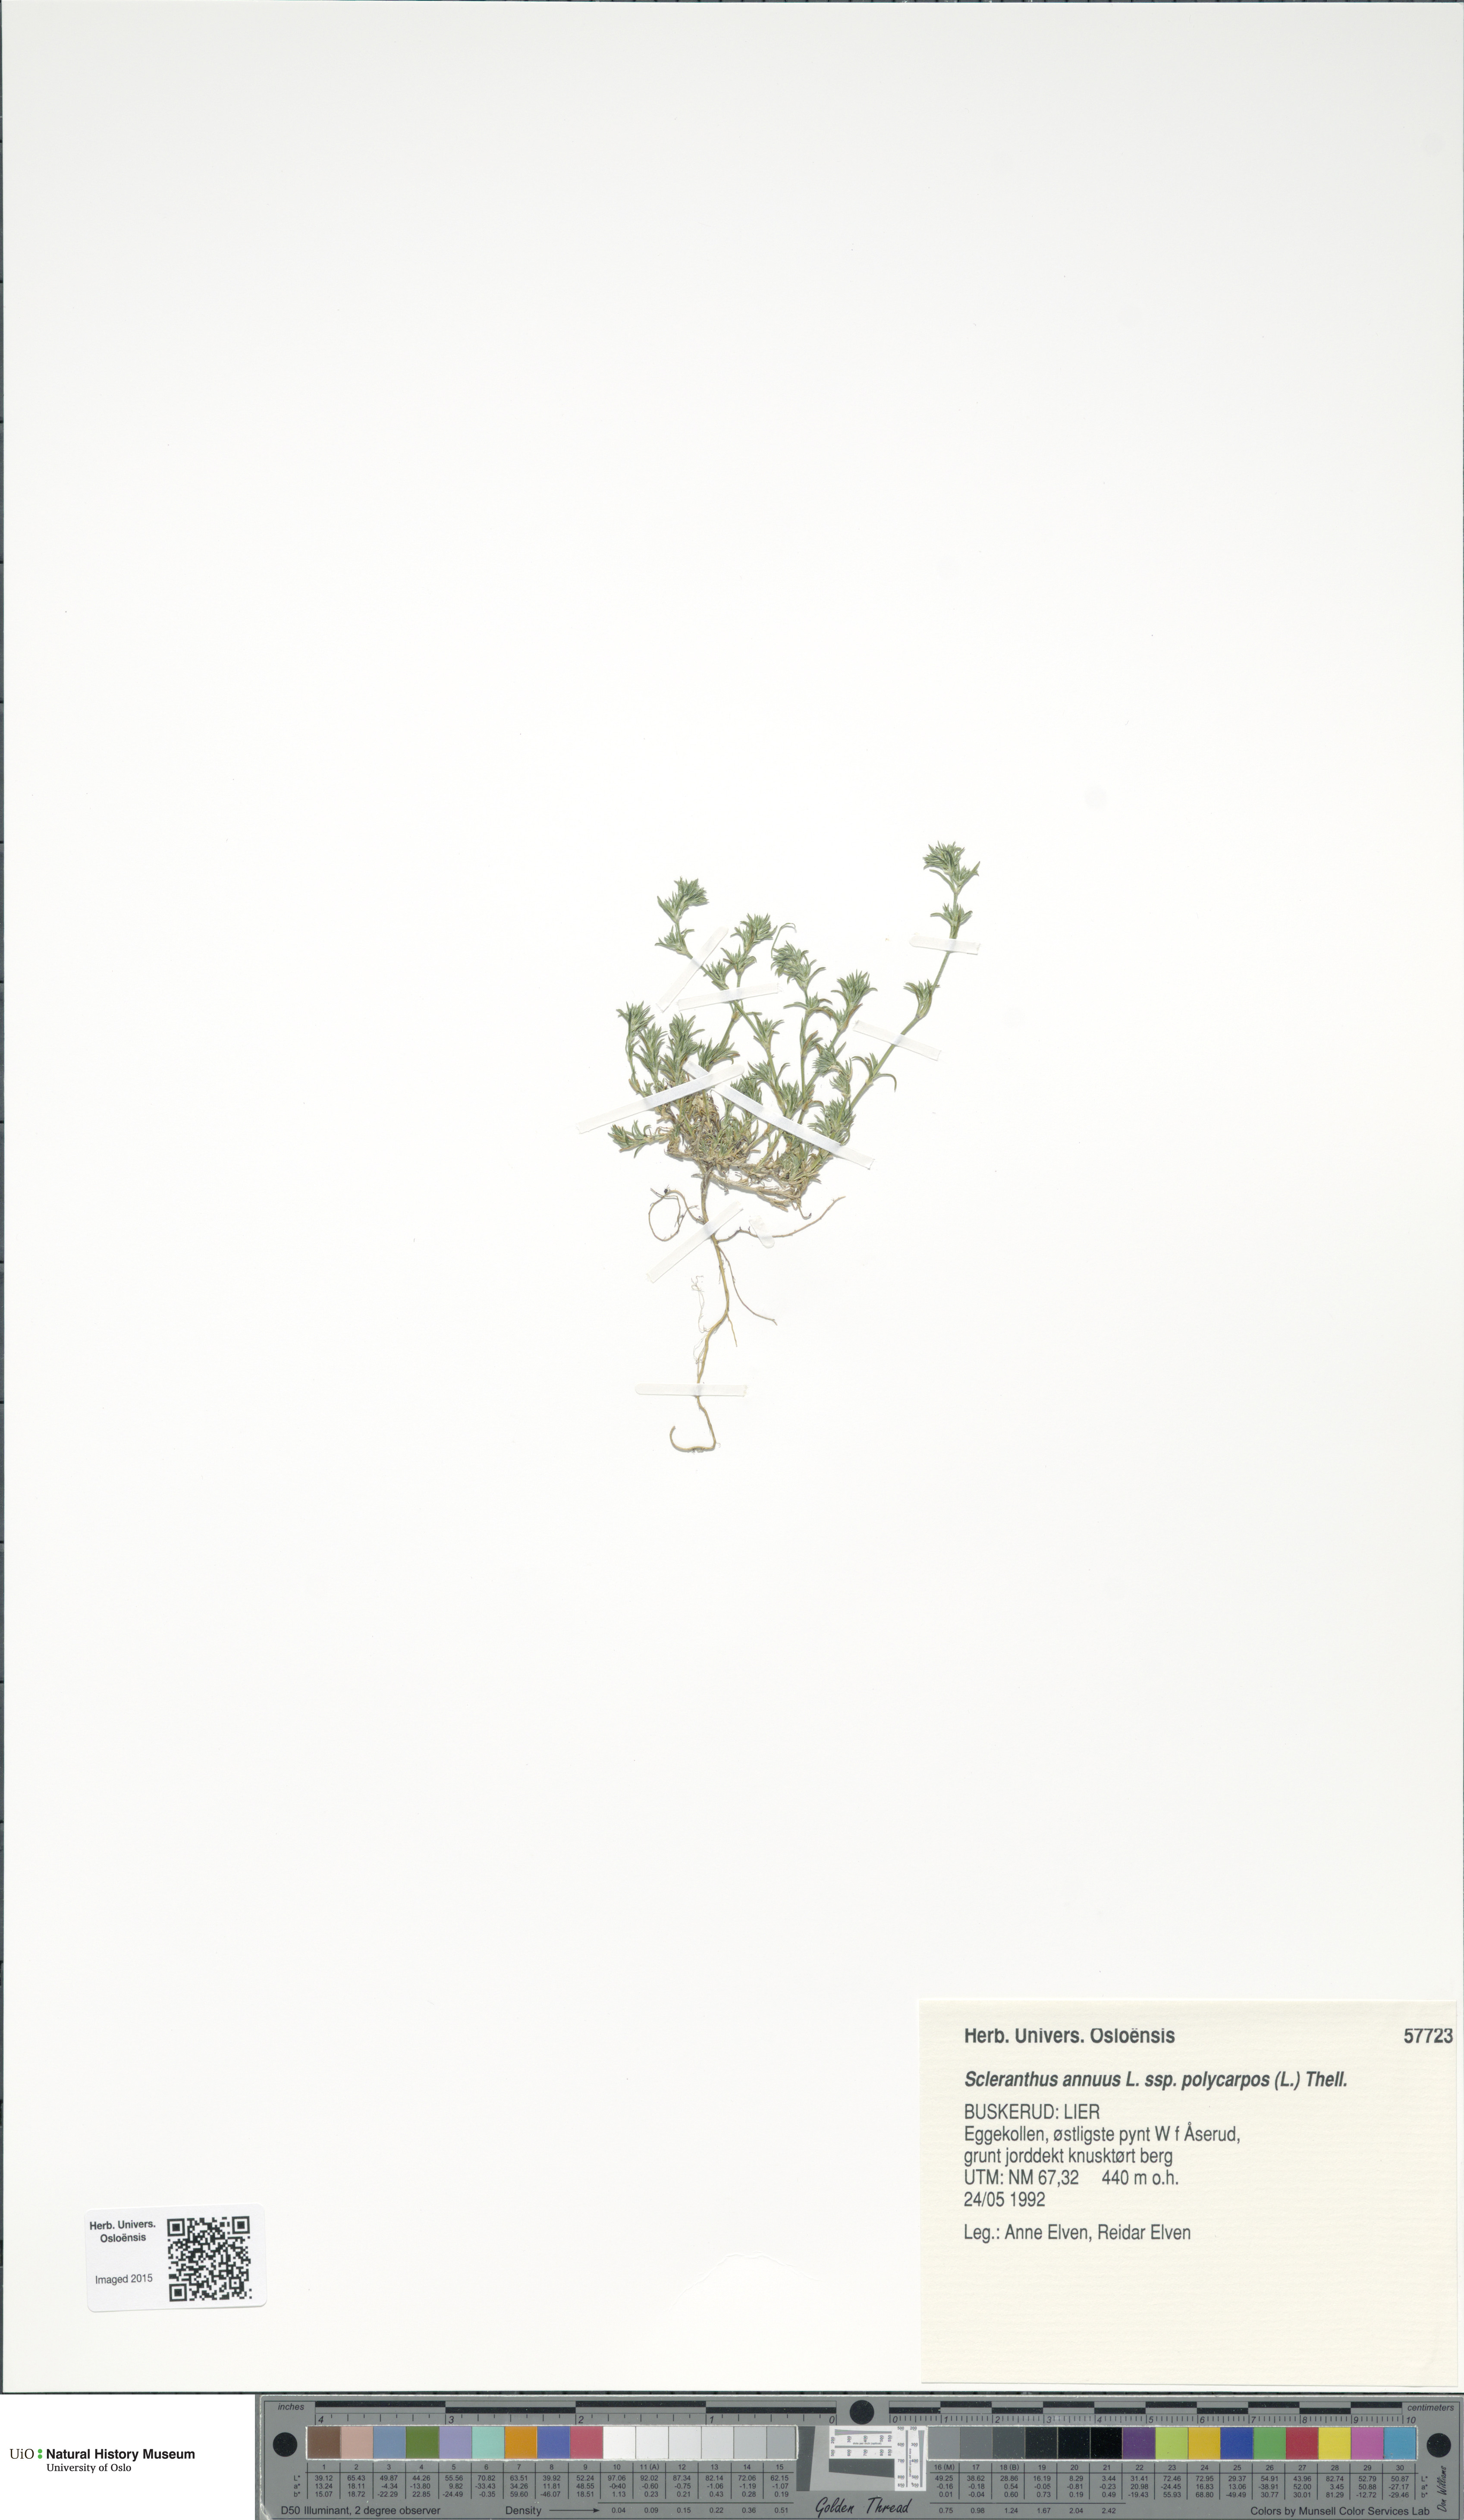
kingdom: Plantae
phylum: Tracheophyta
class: Magnoliopsida
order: Caryophyllales
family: Caryophyllaceae
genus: Scleranthus
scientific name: Scleranthus annuus
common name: Annual knawel
